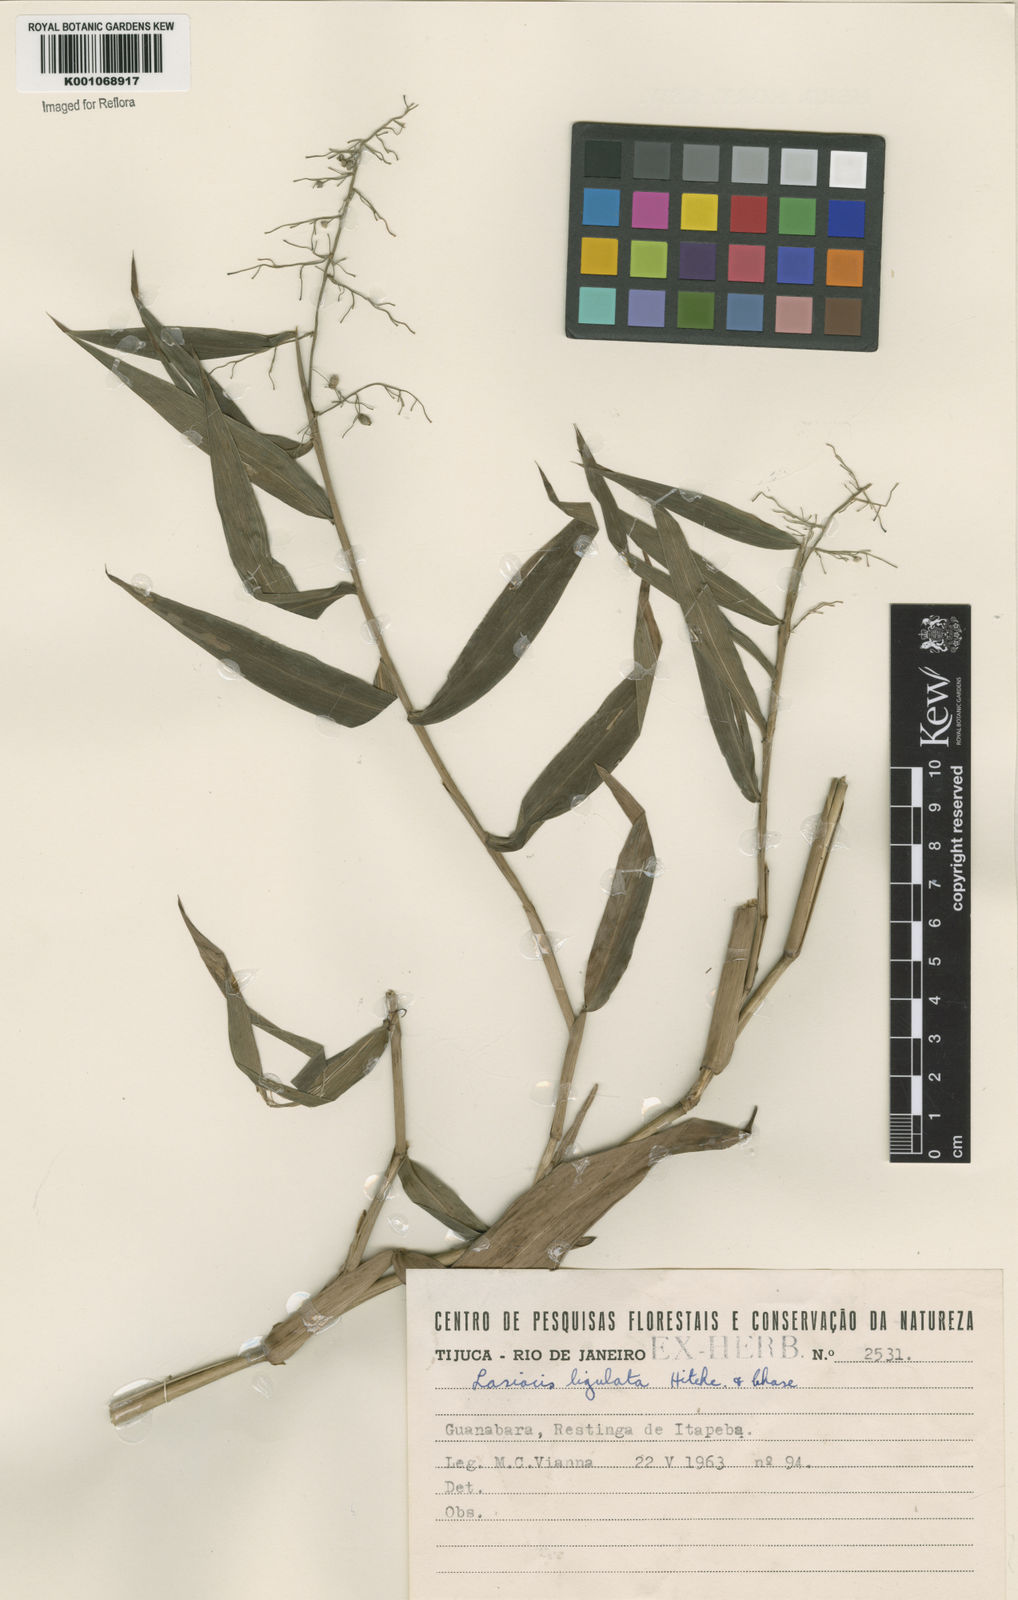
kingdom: Plantae
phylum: Tracheophyta
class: Liliopsida
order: Poales
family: Poaceae
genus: Lasiacis
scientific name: Lasiacis ligulata
